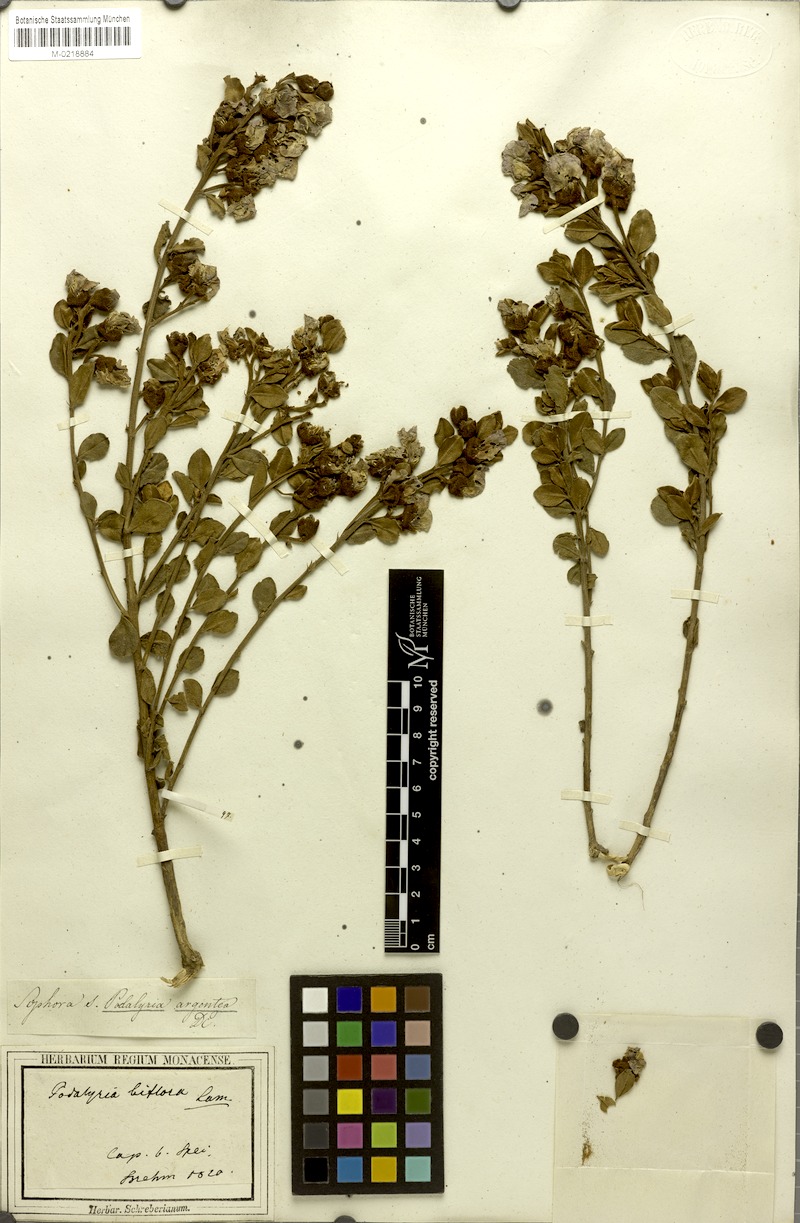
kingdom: Plantae
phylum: Tracheophyta
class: Magnoliopsida
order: Fabales
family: Fabaceae
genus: Podalyria
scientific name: Podalyria racemulosa
